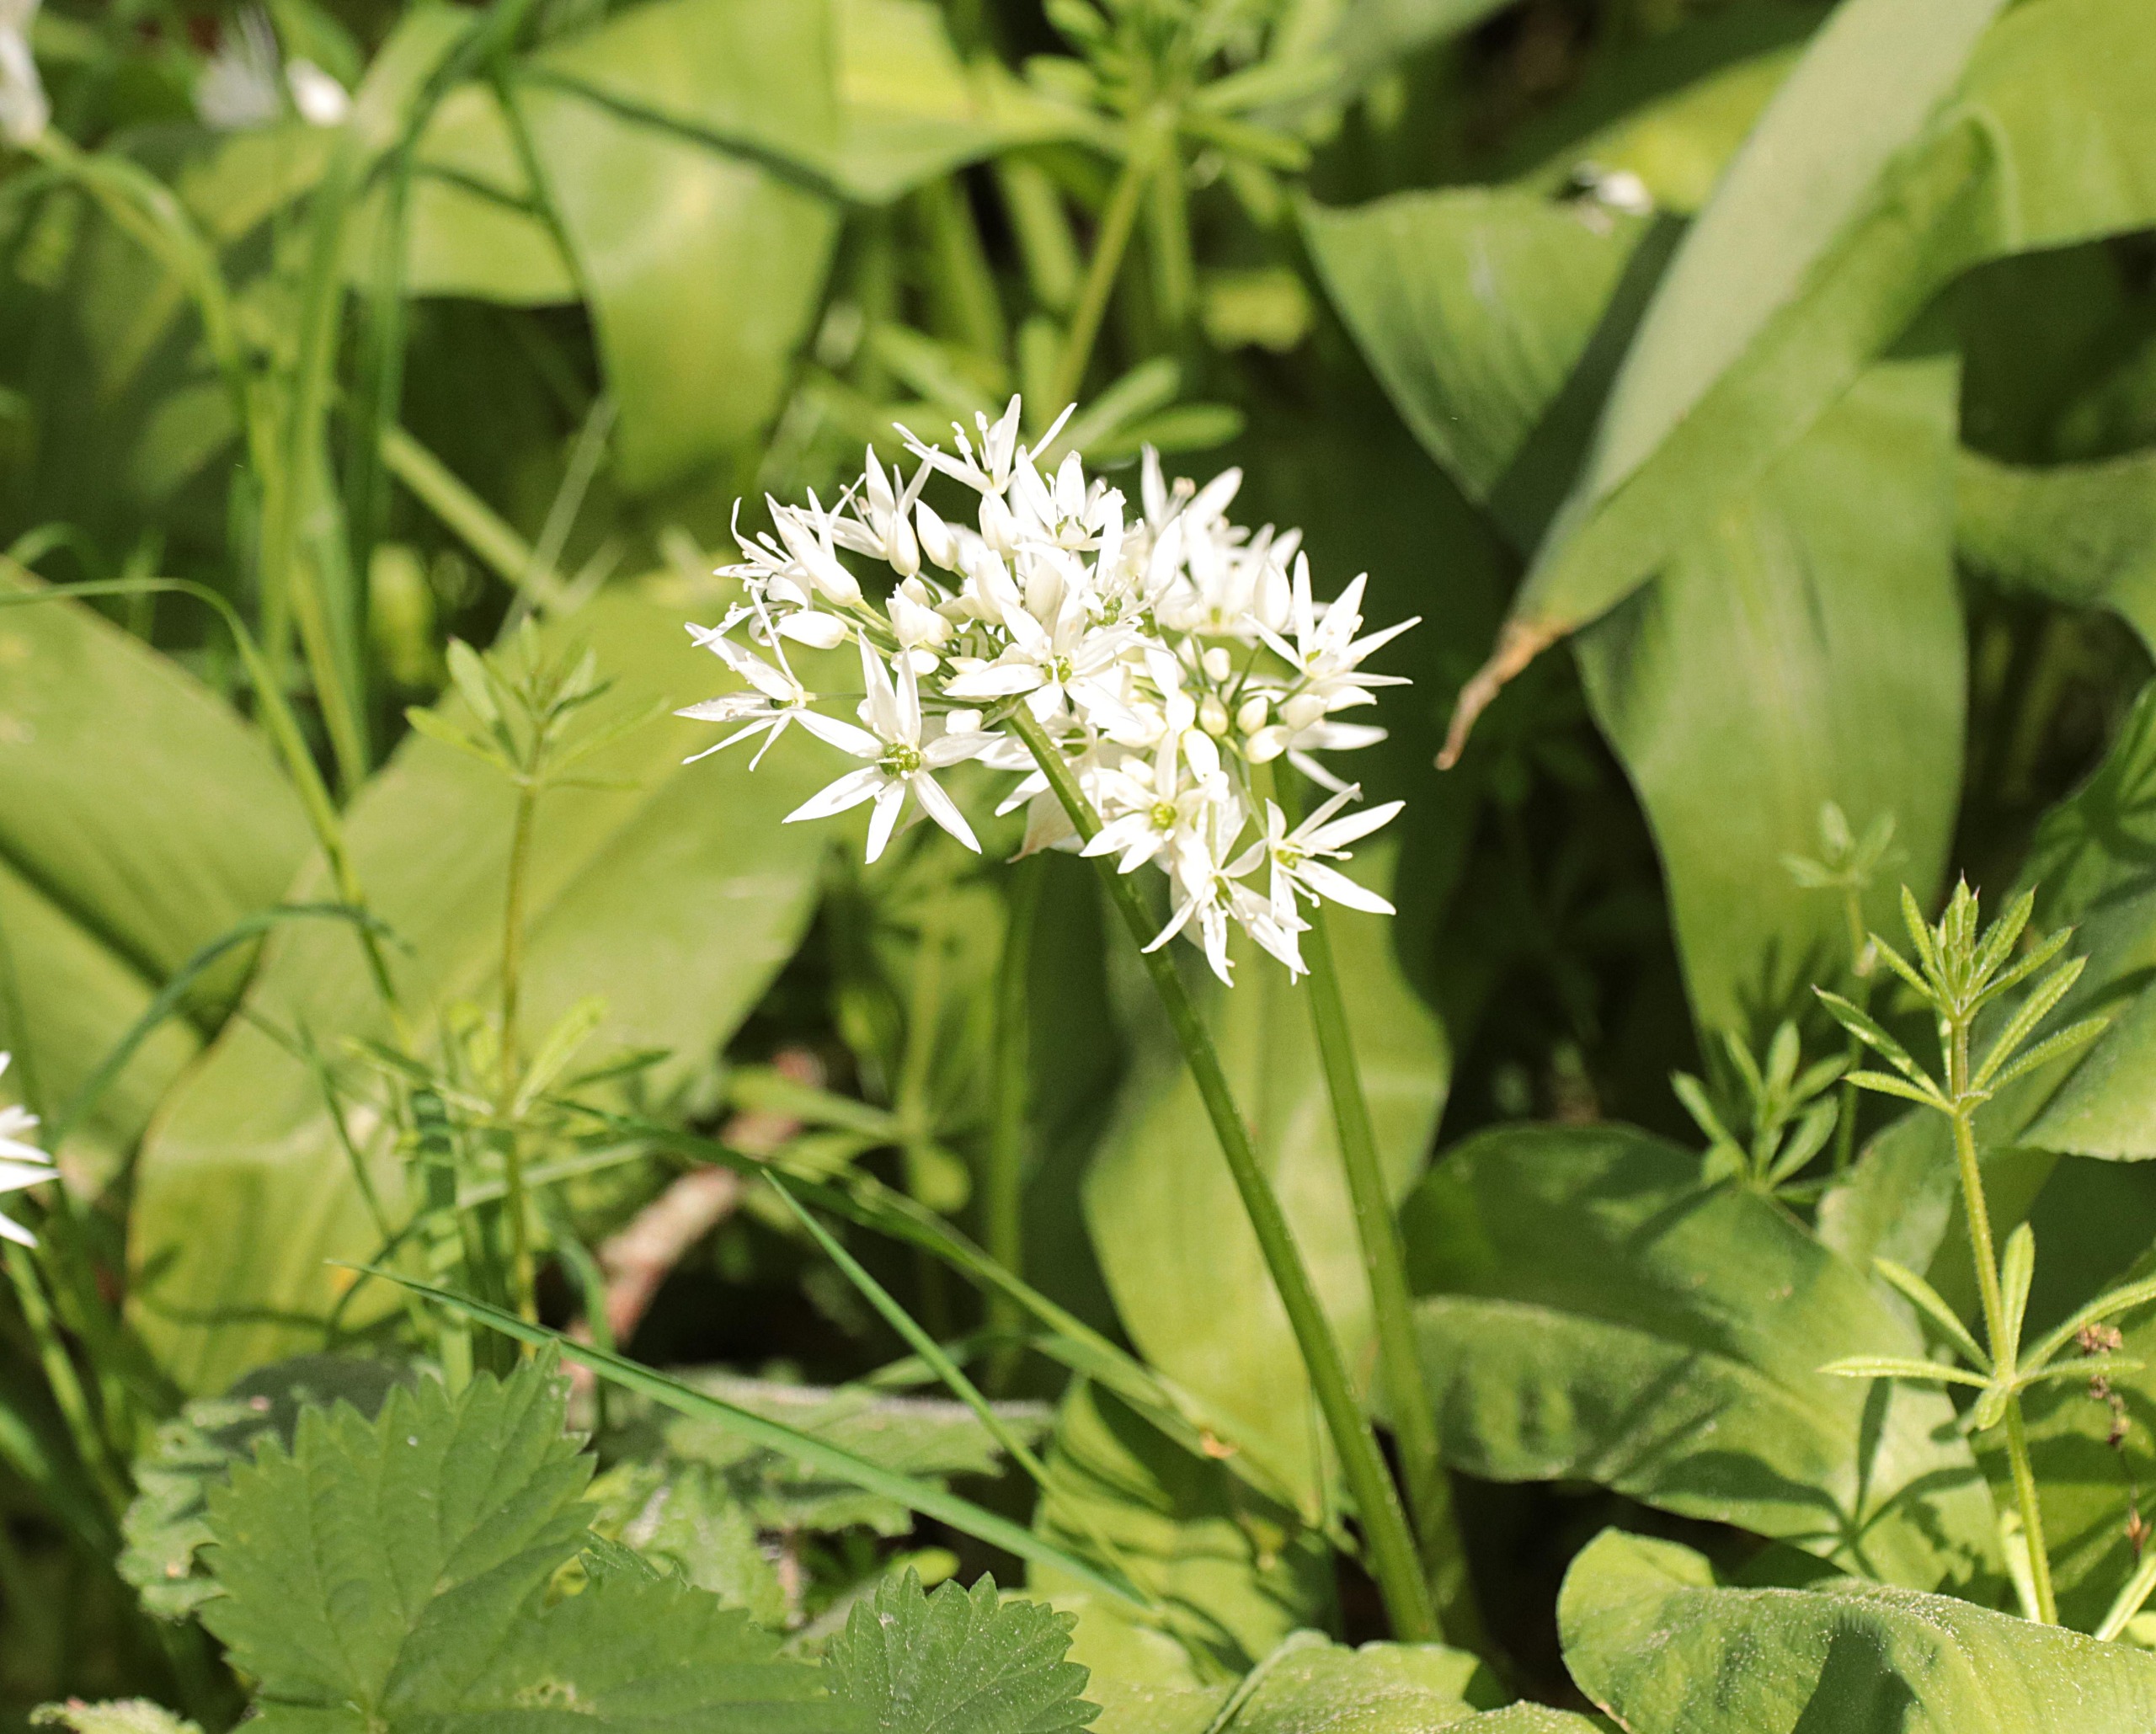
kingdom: Plantae
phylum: Tracheophyta
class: Liliopsida
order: Asparagales
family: Amaryllidaceae
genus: Allium
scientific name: Allium ursinum
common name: Rams-løg
